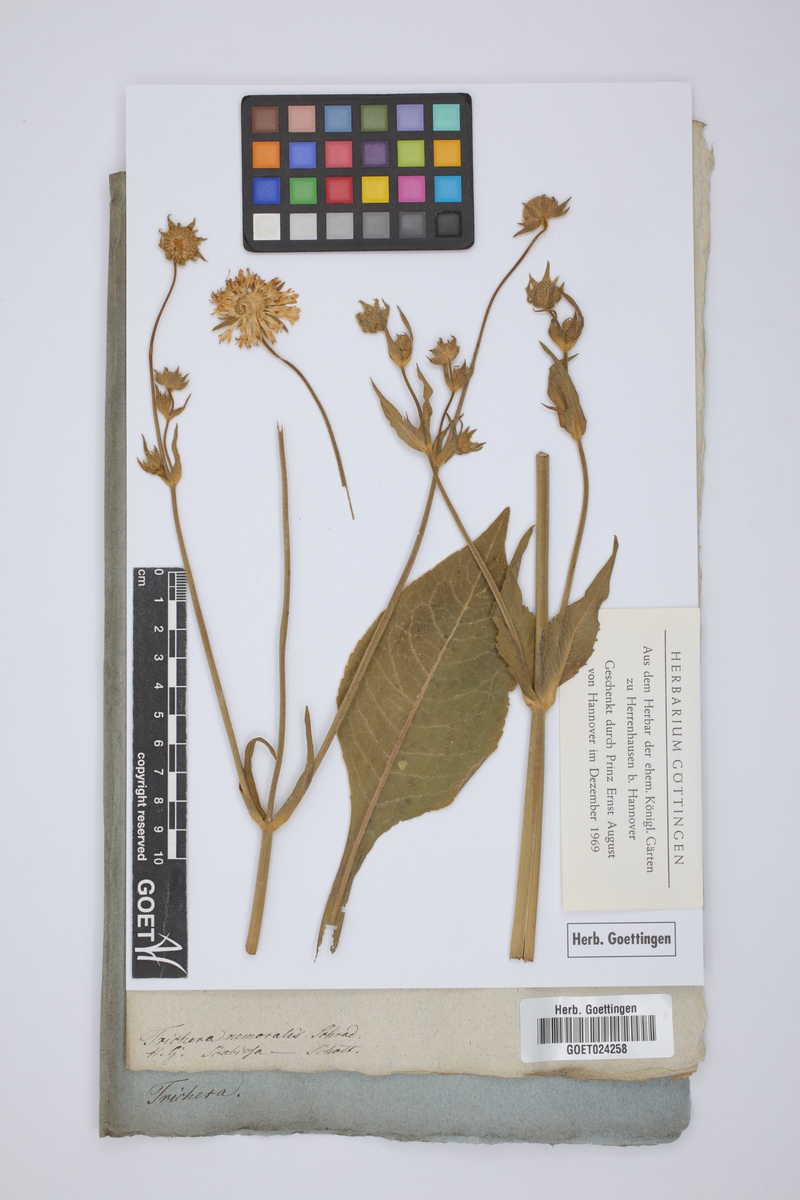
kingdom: Plantae
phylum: Tracheophyta
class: Magnoliopsida
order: Dipsacales
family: Caprifoliaceae
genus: Trichera
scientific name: Trichera
